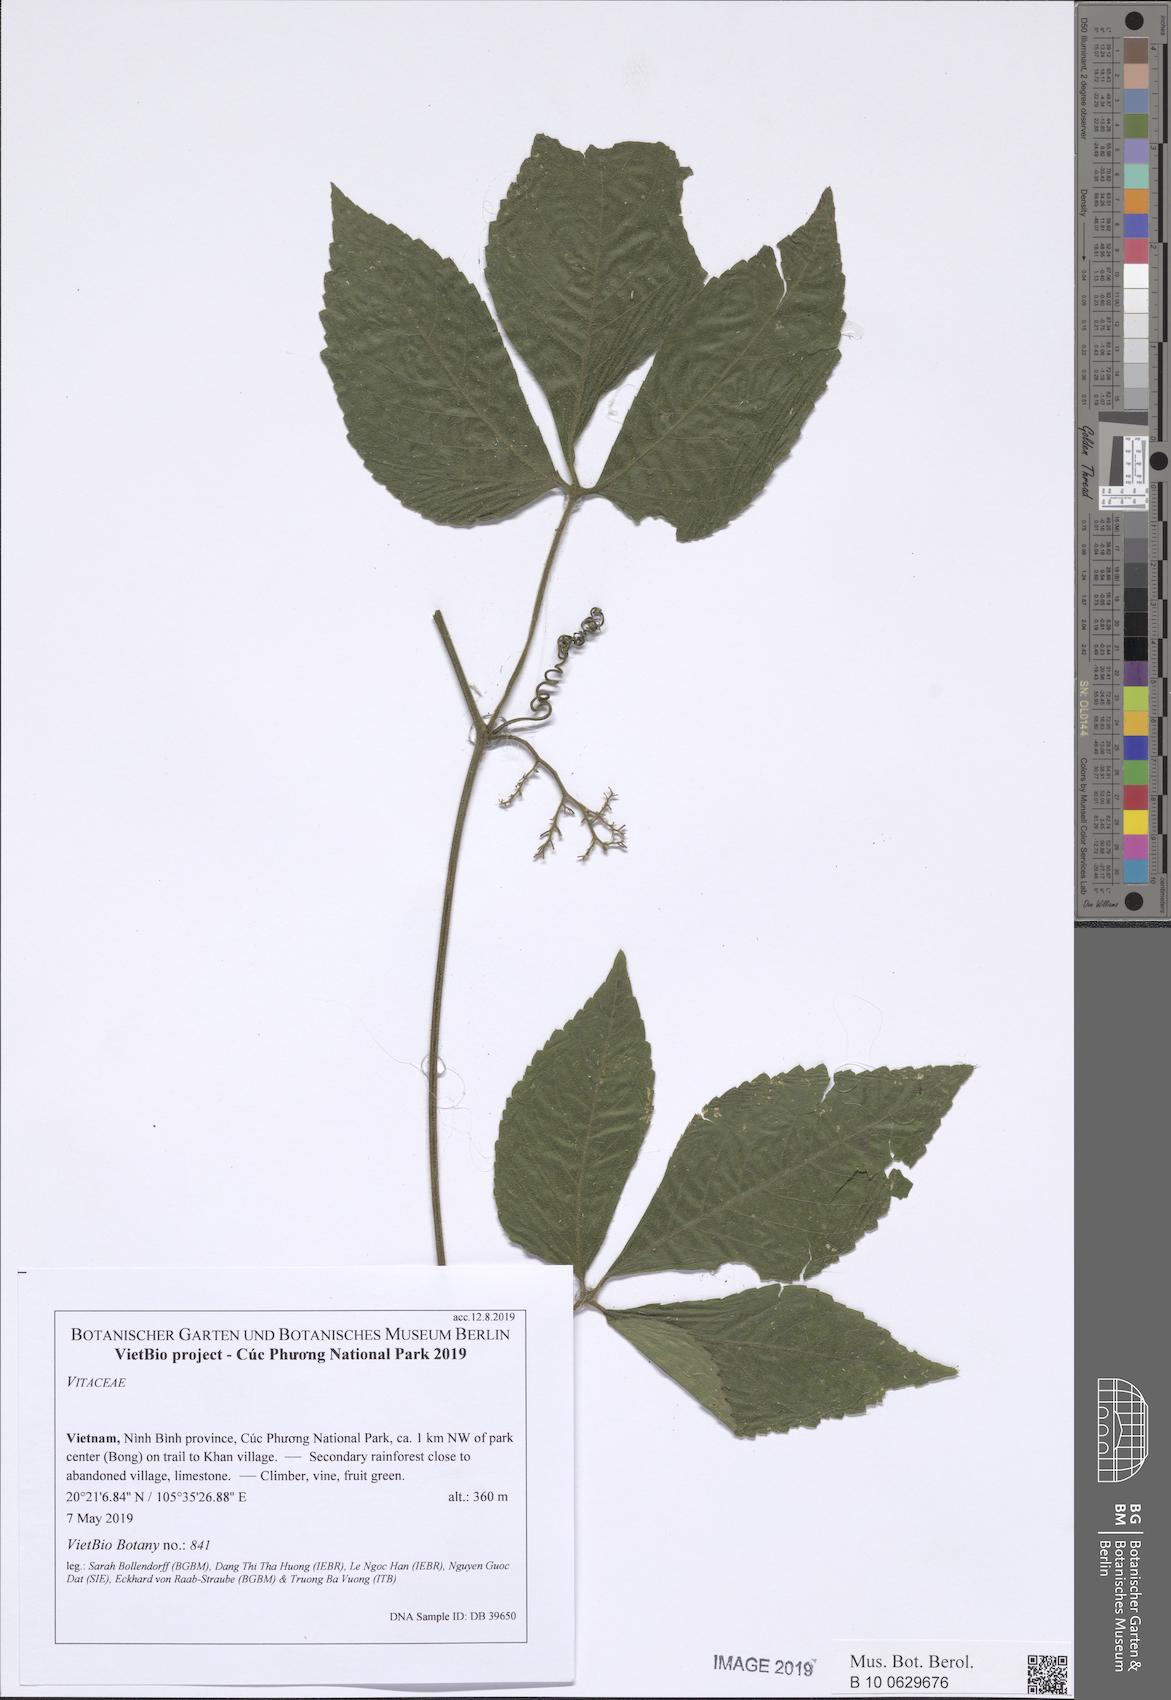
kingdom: Plantae
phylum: Tracheophyta
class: Magnoliopsida
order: Vitales
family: Vitaceae
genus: Tetrastigma
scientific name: Tetrastigma
